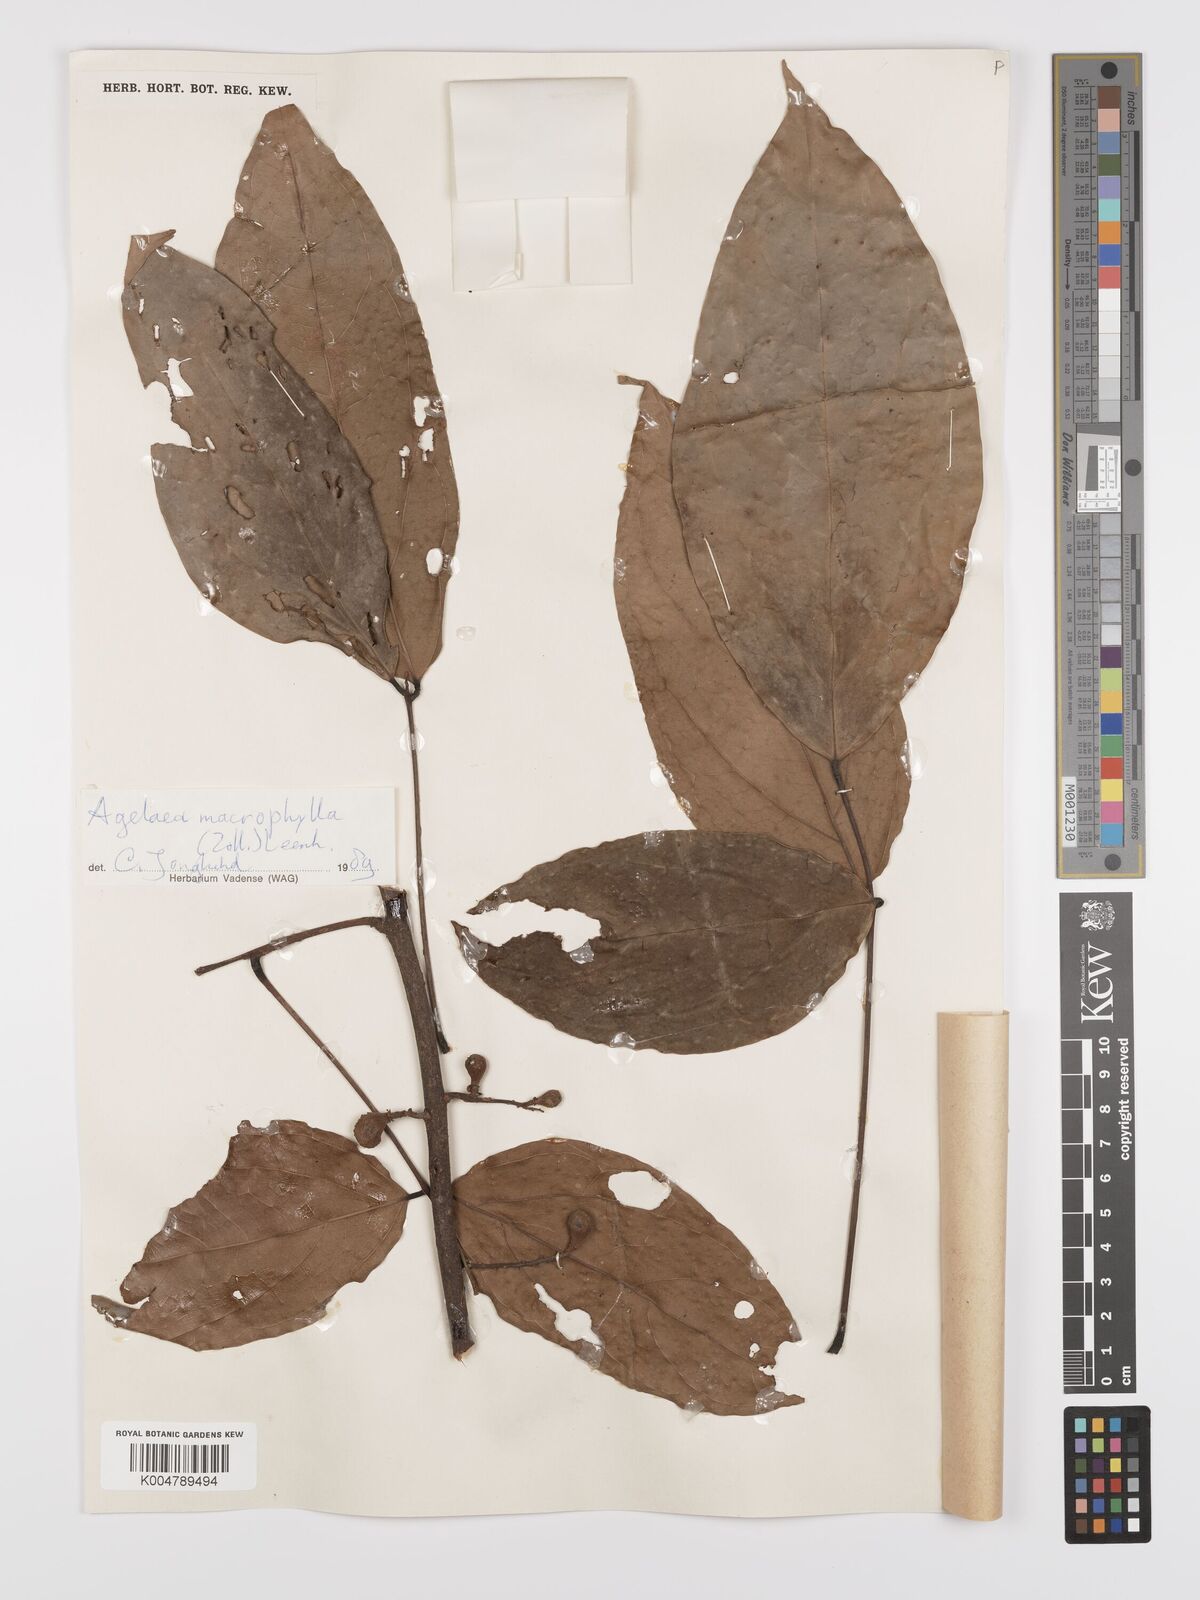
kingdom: Plantae
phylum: Tracheophyta
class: Magnoliopsida
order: Oxalidales
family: Connaraceae
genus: Agelaea
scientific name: Agelaea macrophylla
